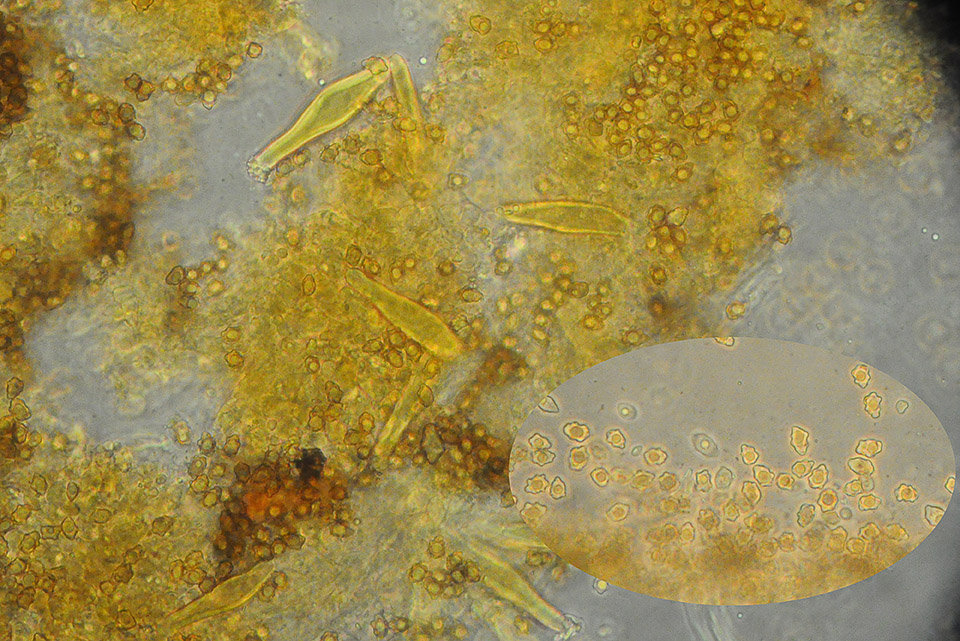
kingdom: Fungi
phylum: Basidiomycota
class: Agaricomycetes
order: Agaricales
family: Inocybaceae
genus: Inocybe
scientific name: Inocybe petiginosa
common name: liden trævlhat
